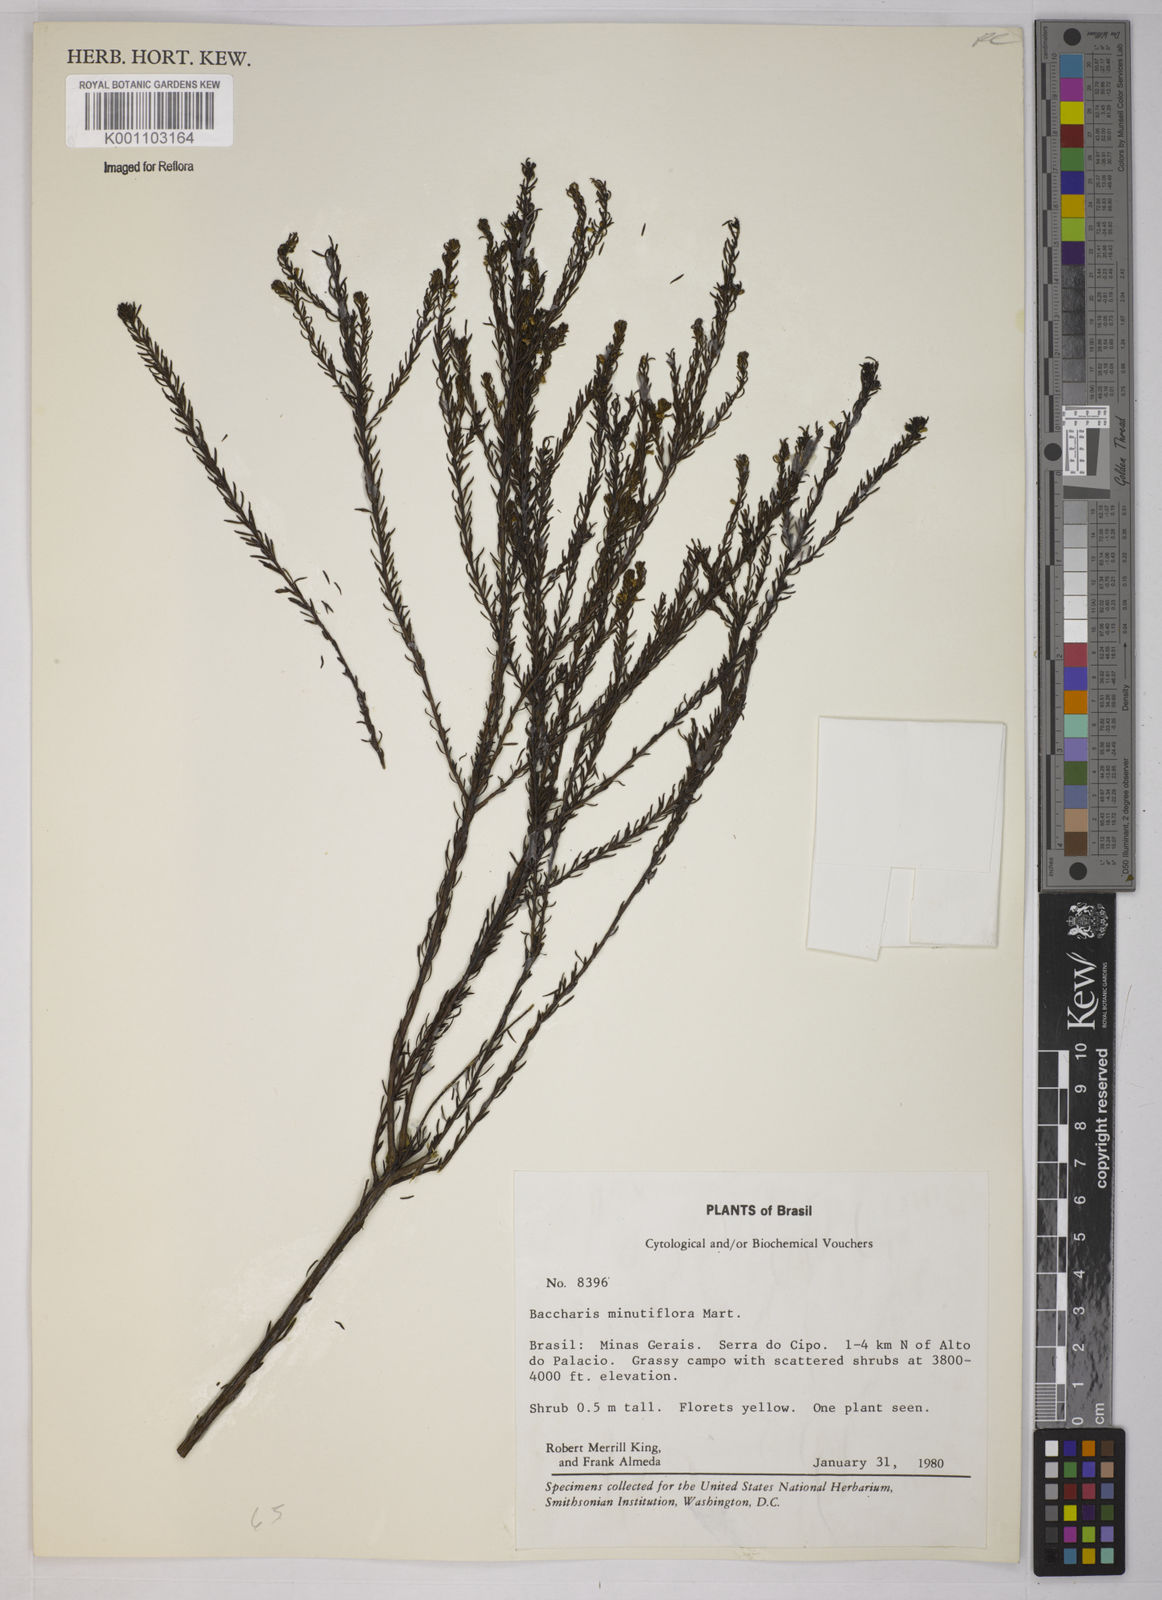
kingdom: Plantae
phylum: Tracheophyta
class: Magnoliopsida
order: Asterales
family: Asteraceae
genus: Baccharis
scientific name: Baccharis minutiflora
